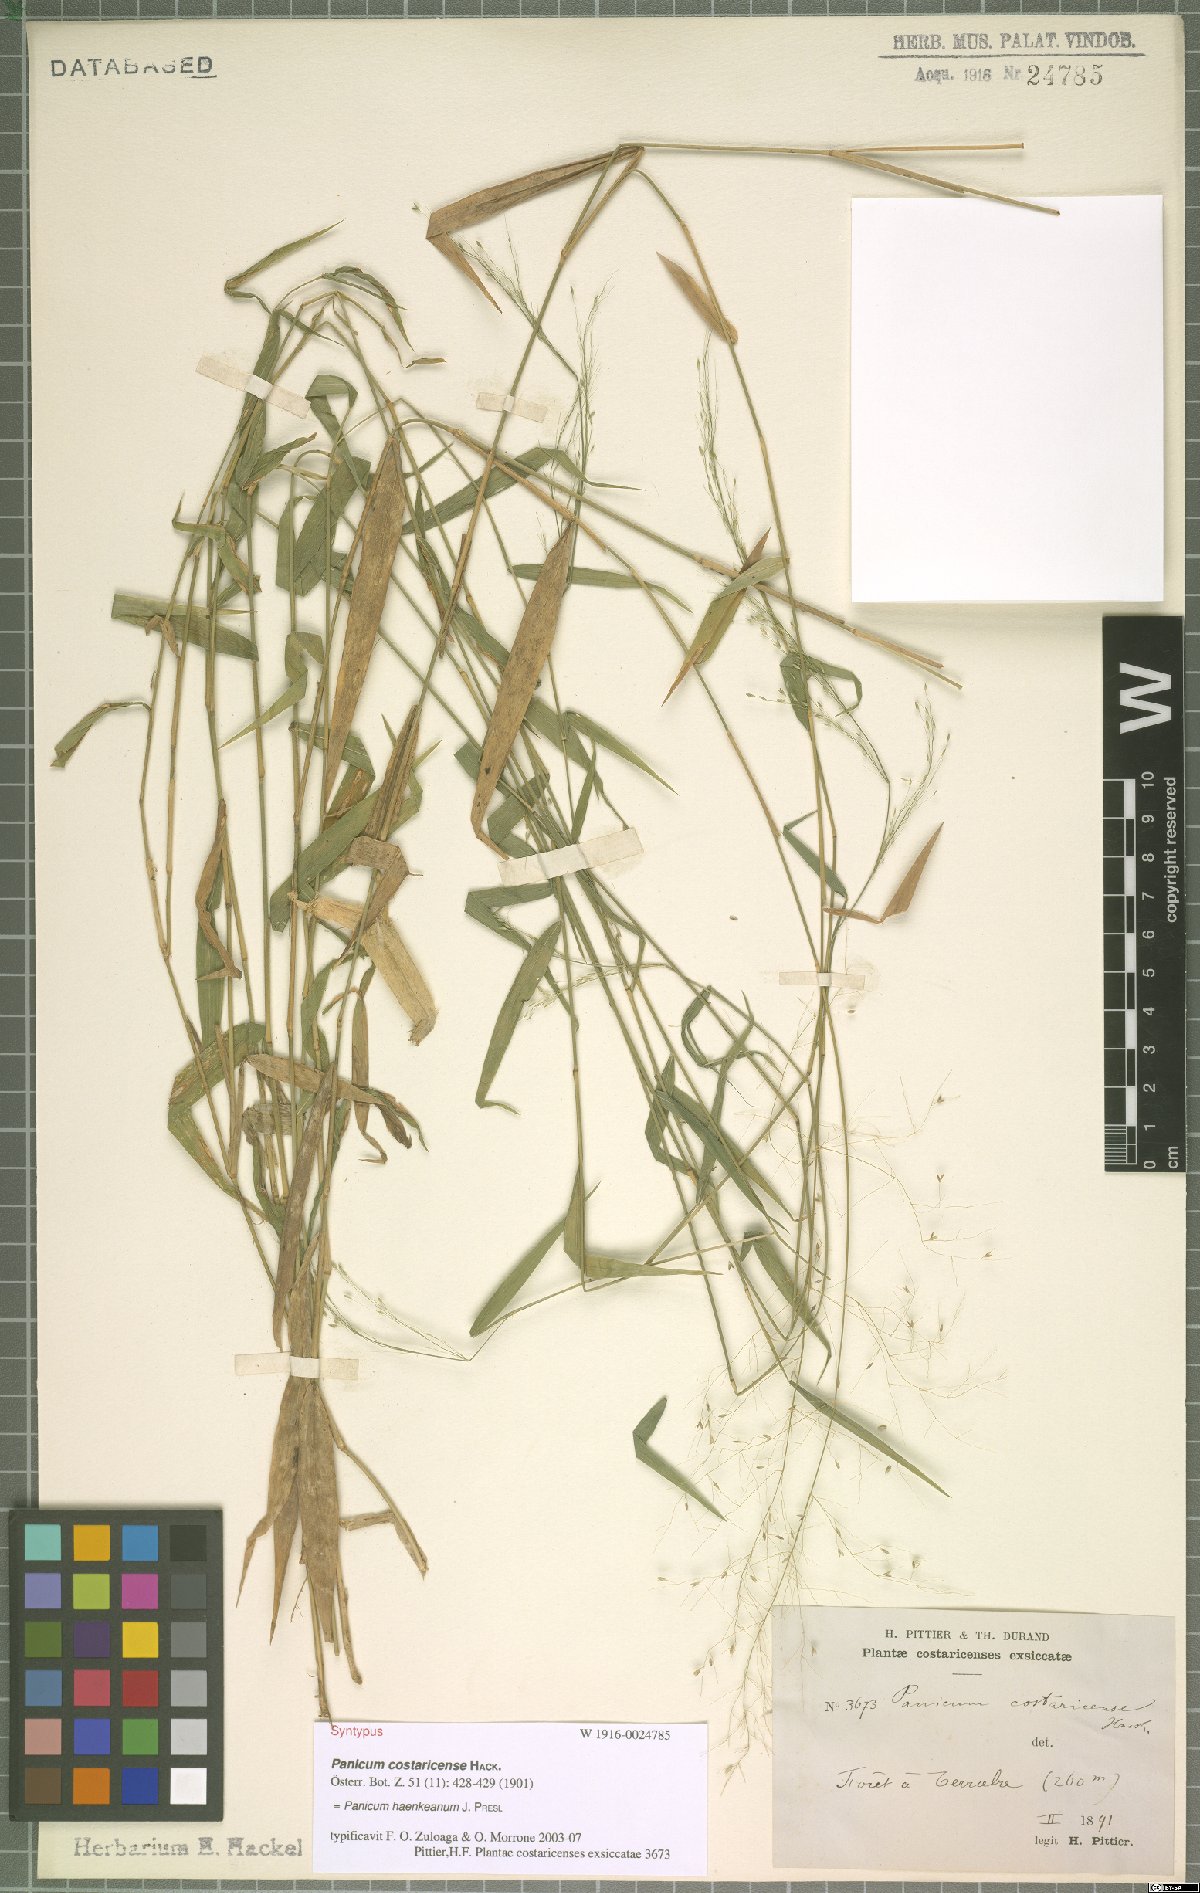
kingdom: Plantae
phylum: Tracheophyta
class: Liliopsida
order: Poales
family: Poaceae
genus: Panicum
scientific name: Panicum haenkeanum
